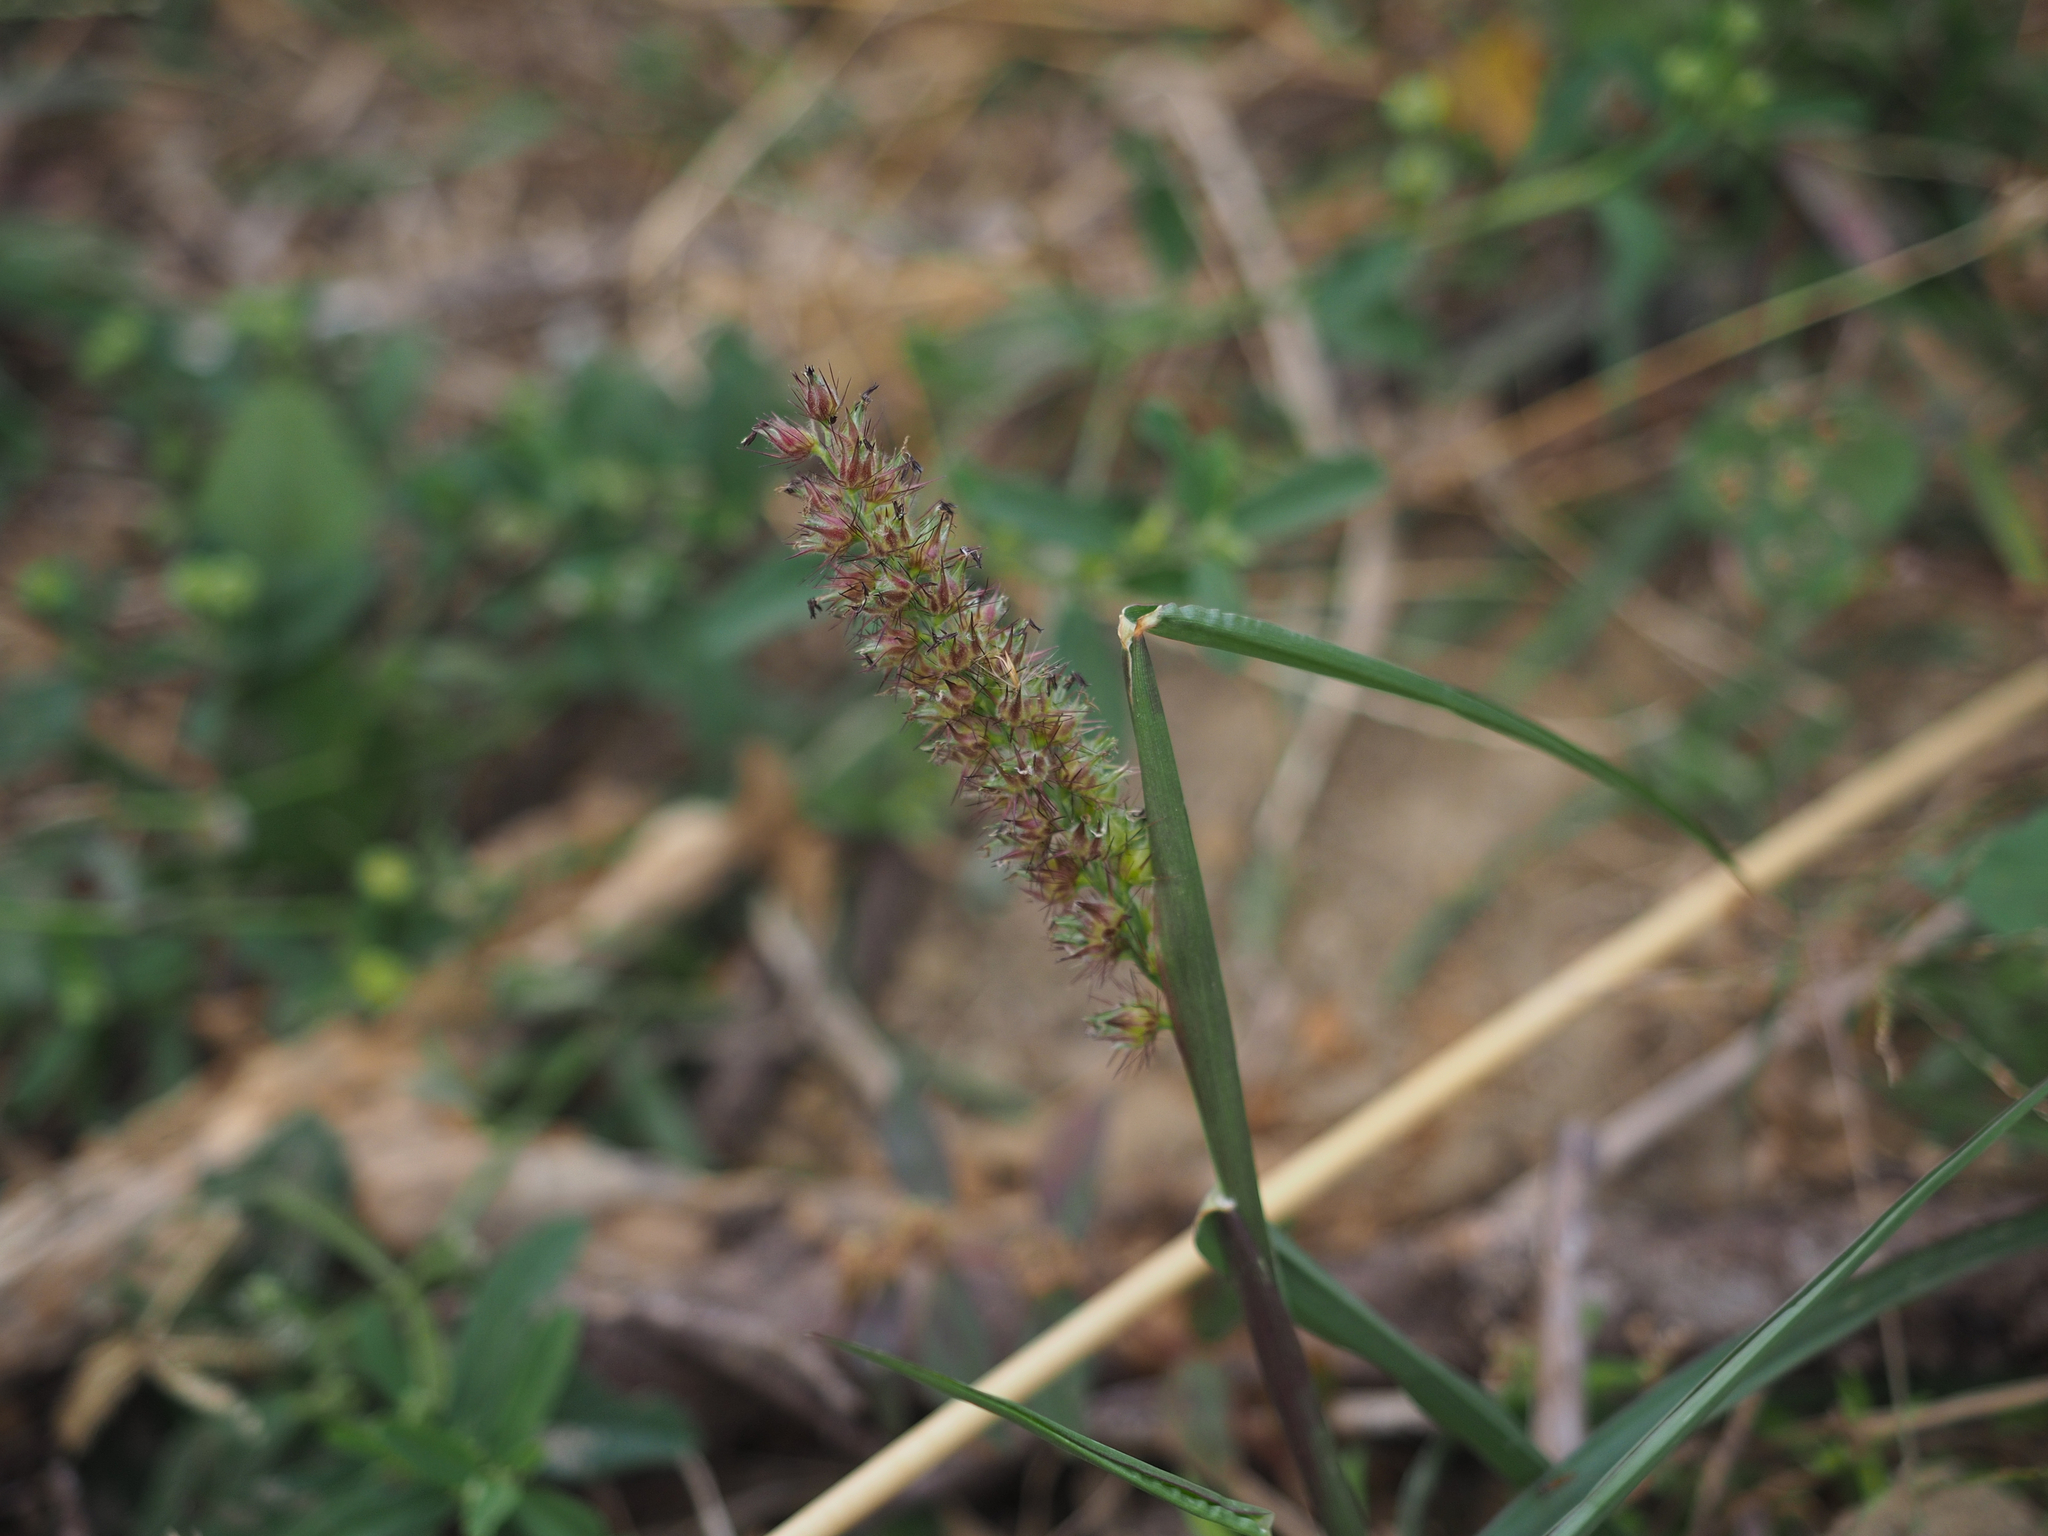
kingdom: Plantae
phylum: Tracheophyta
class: Liliopsida
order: Poales
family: Poaceae
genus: Cenchrus
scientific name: Cenchrus echinatus
